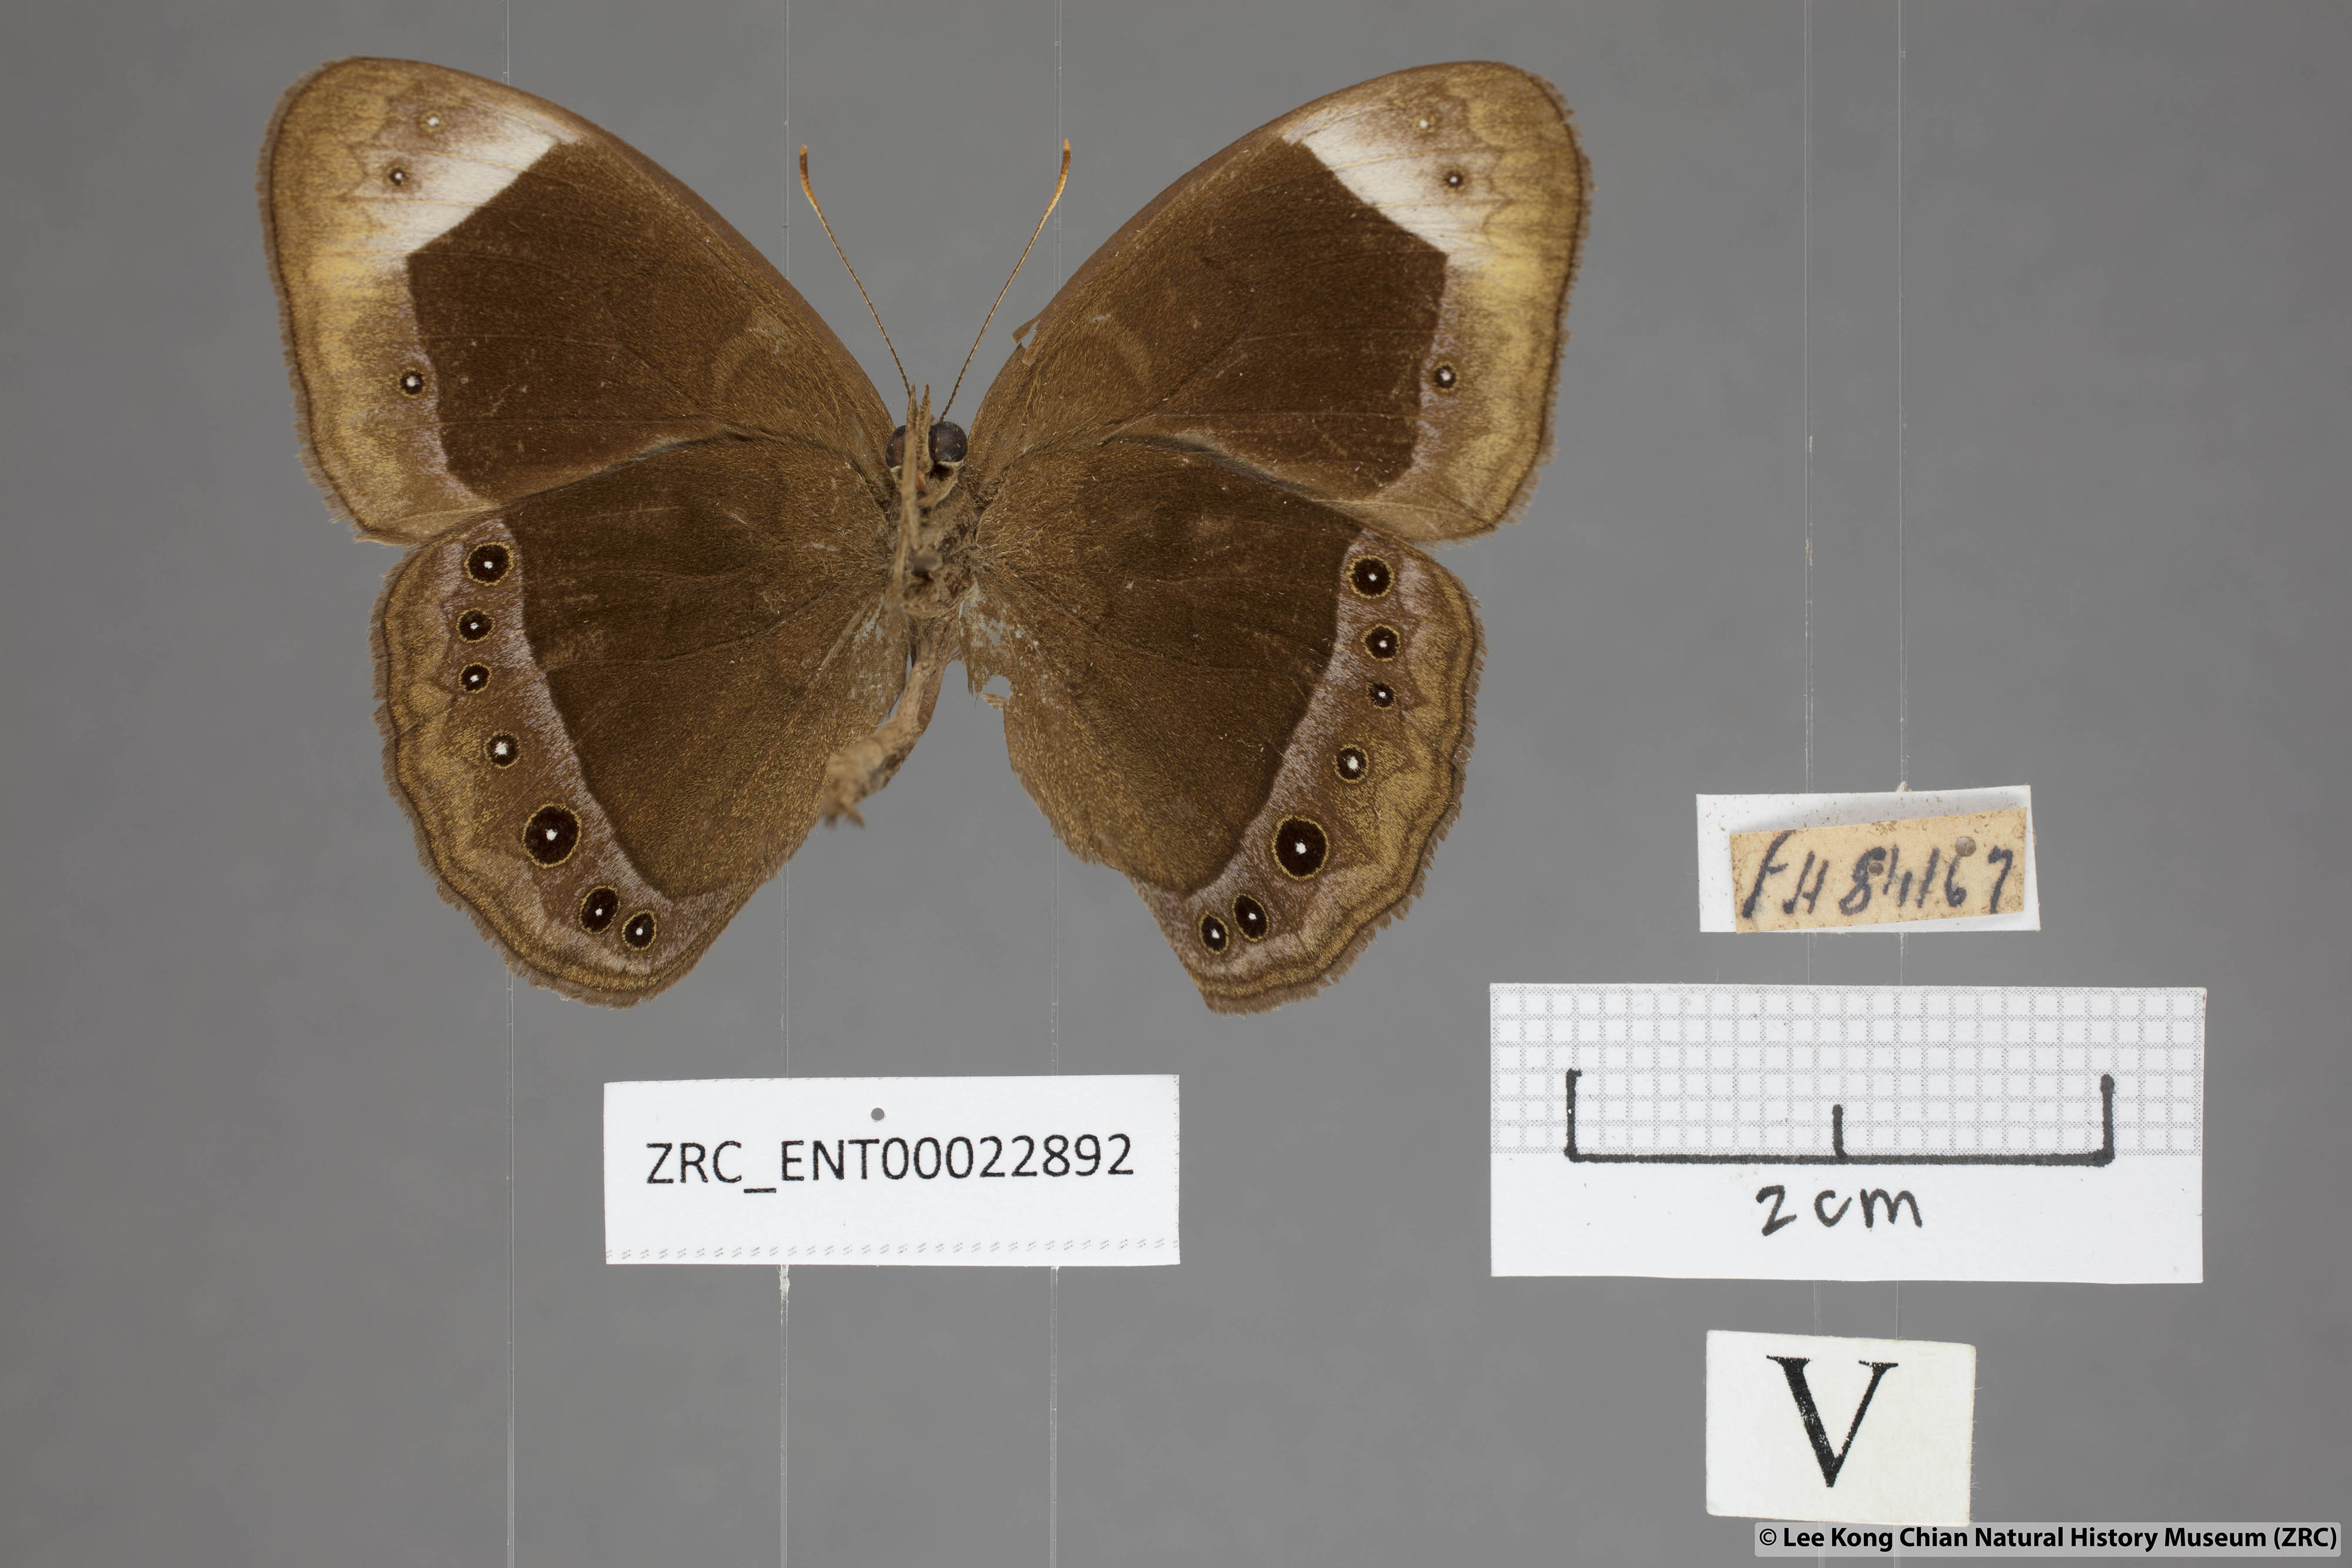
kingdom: Animalia
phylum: Arthropoda
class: Insecta
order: Lepidoptera
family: Nymphalidae
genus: Mycalesis
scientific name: Mycalesis anaxias
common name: White-bar bushbrown
